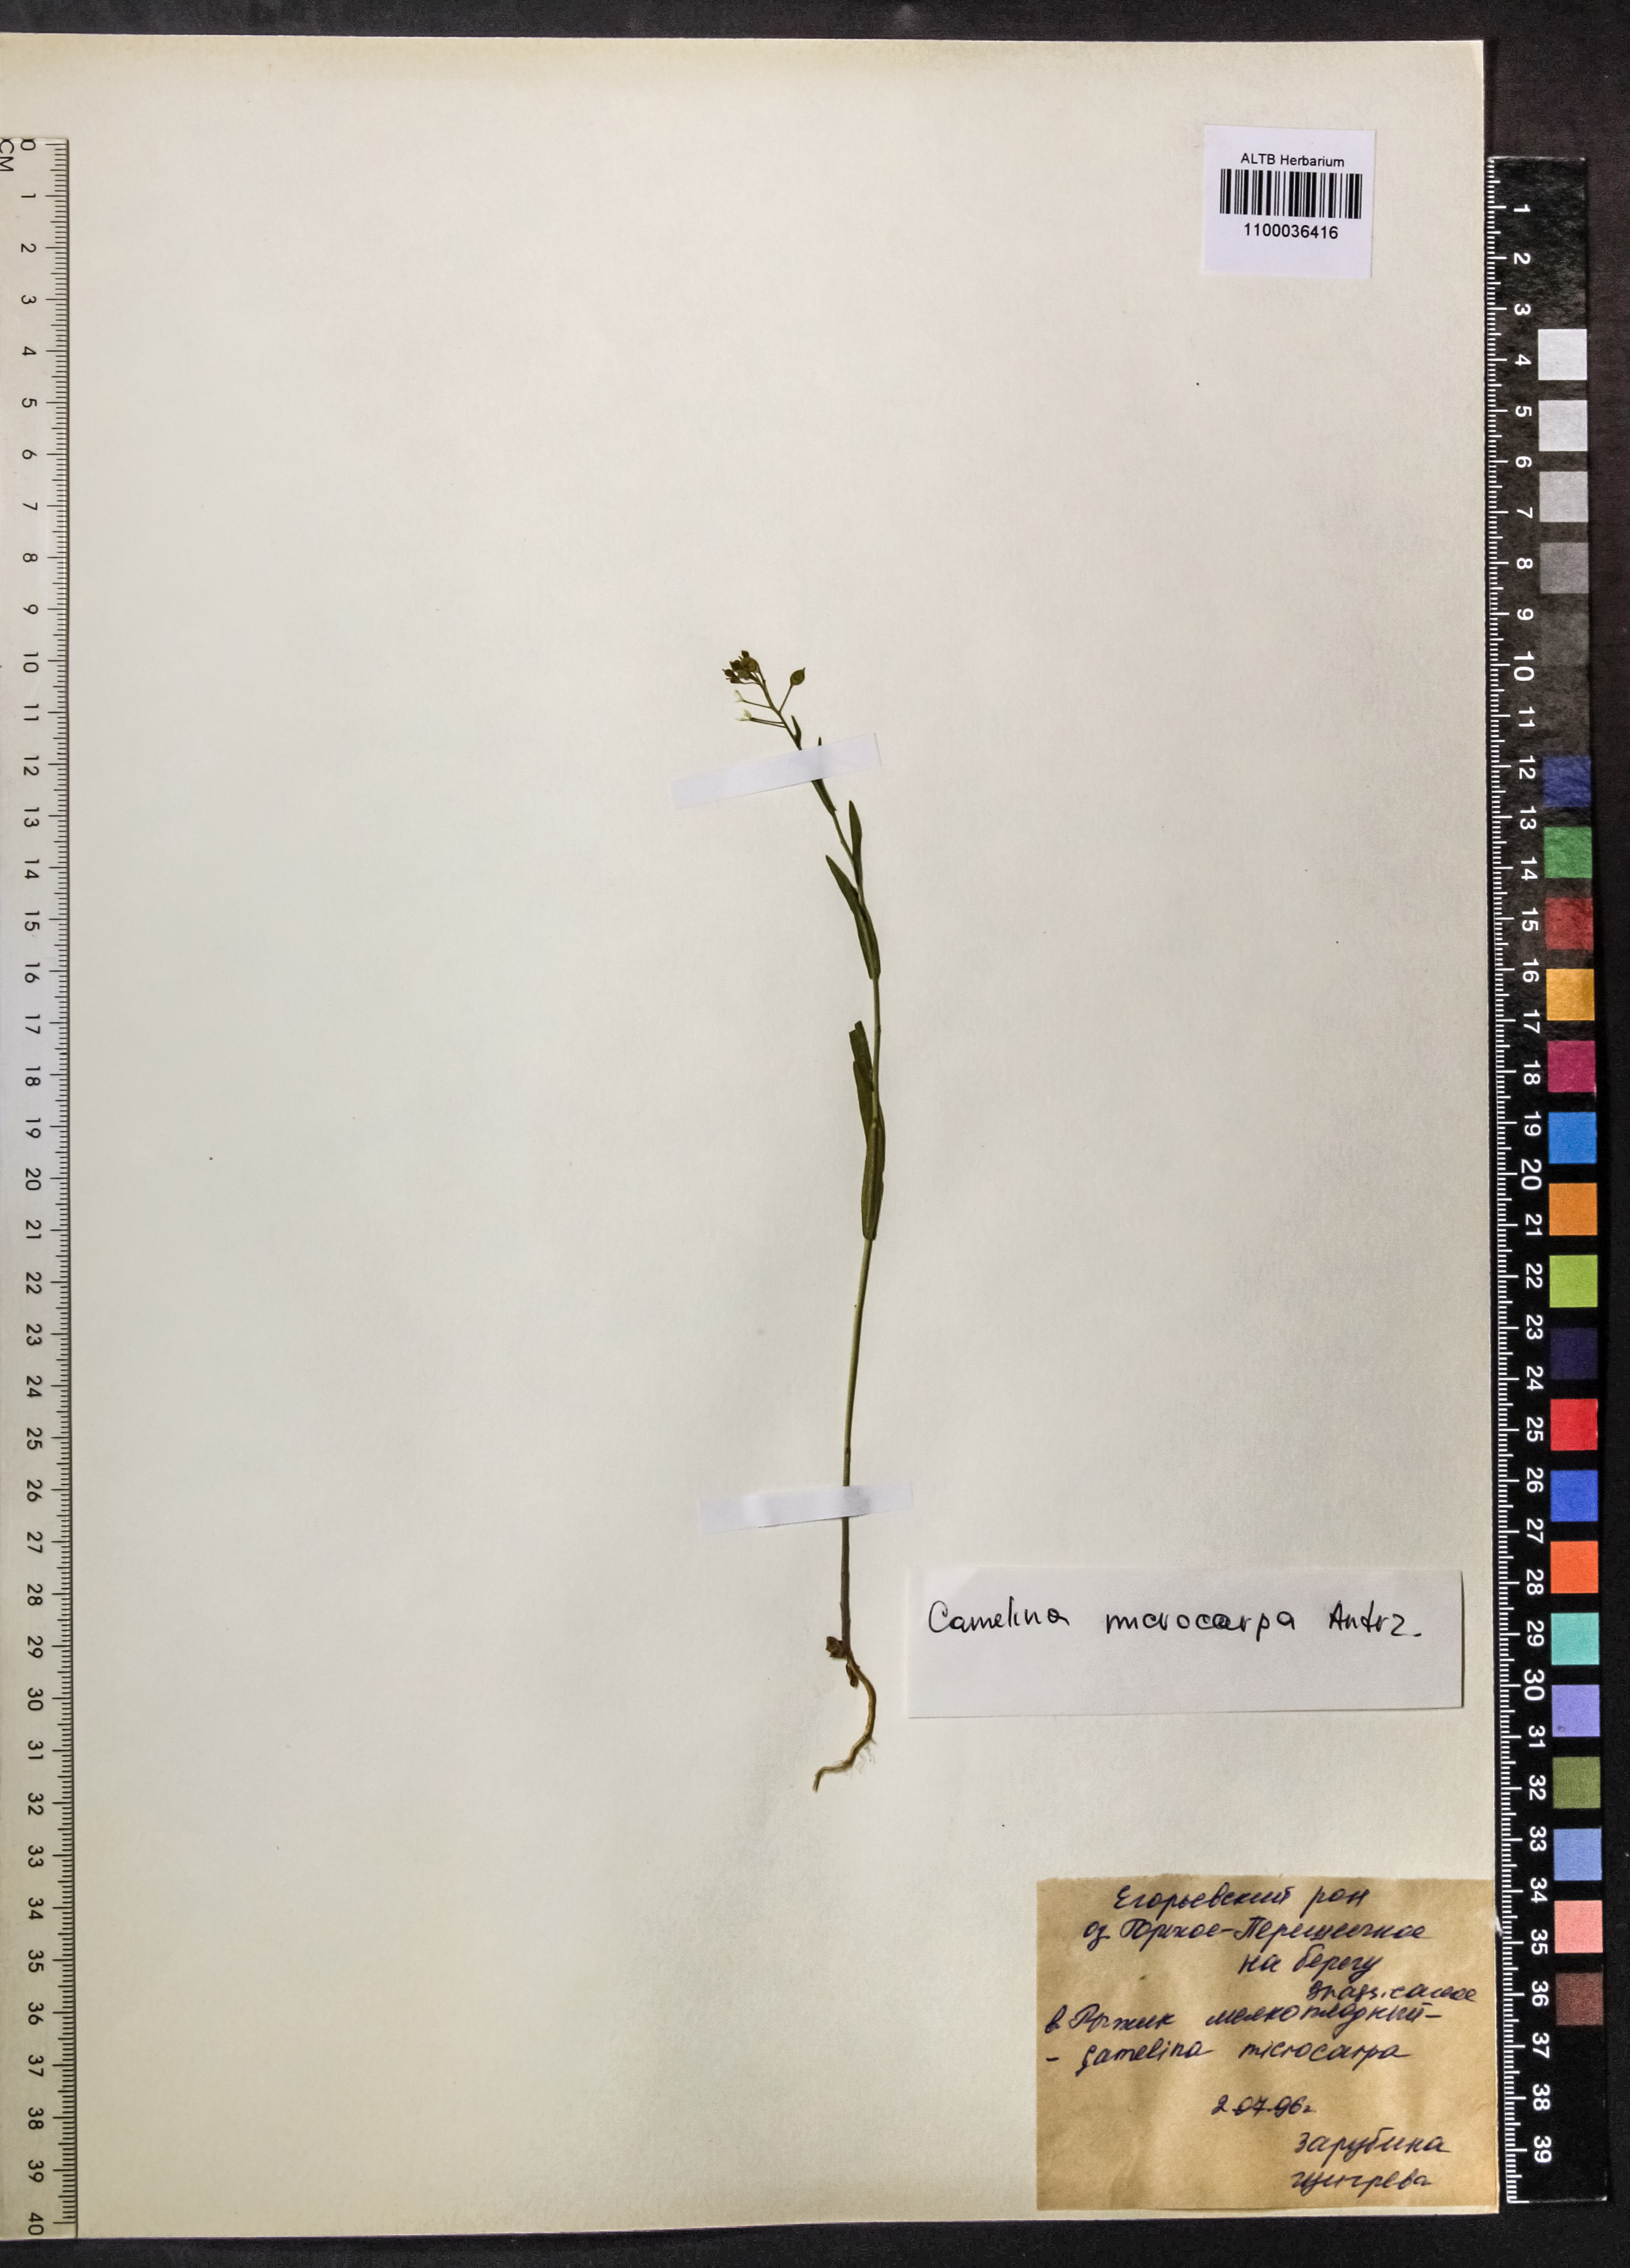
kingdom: Plantae
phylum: Tracheophyta
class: Magnoliopsida
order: Brassicales
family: Brassicaceae
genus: Camelina
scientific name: Camelina microcarpa
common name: Lesser gold-of-pleasure
